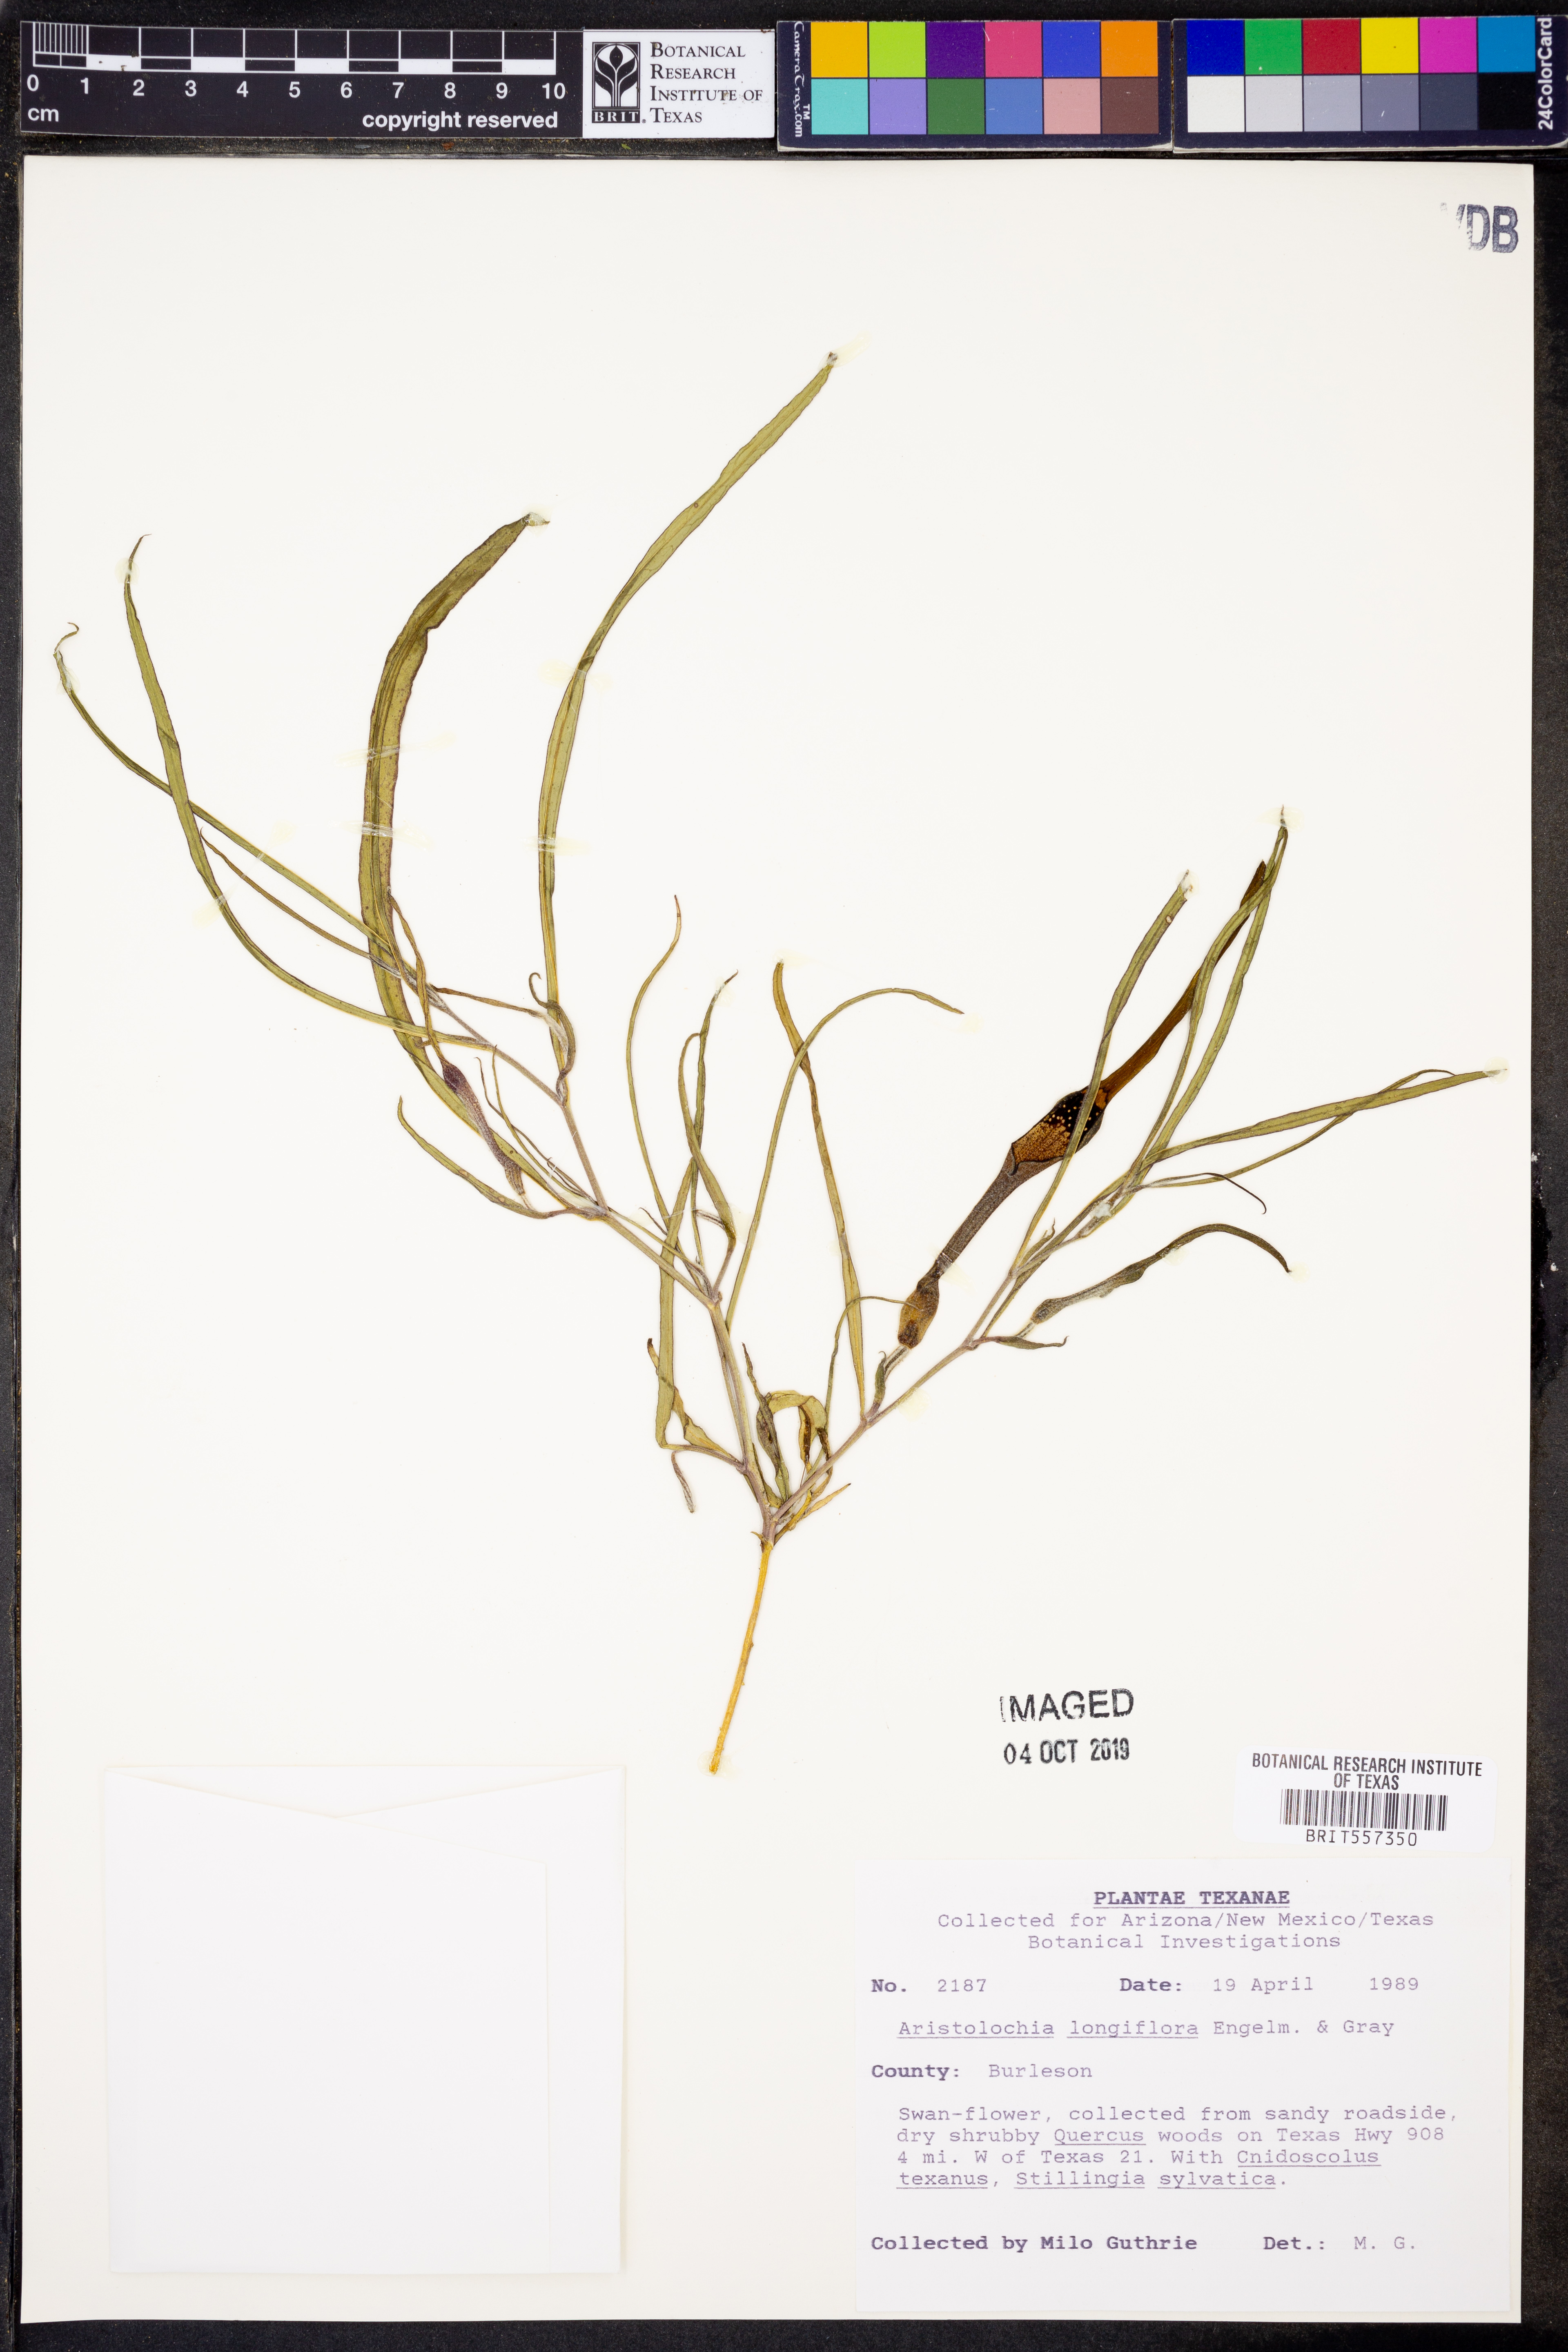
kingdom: Plantae
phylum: Tracheophyta
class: Magnoliopsida
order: Piperales
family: Aristolochiaceae
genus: Aristolochia
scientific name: Aristolochia erecta
